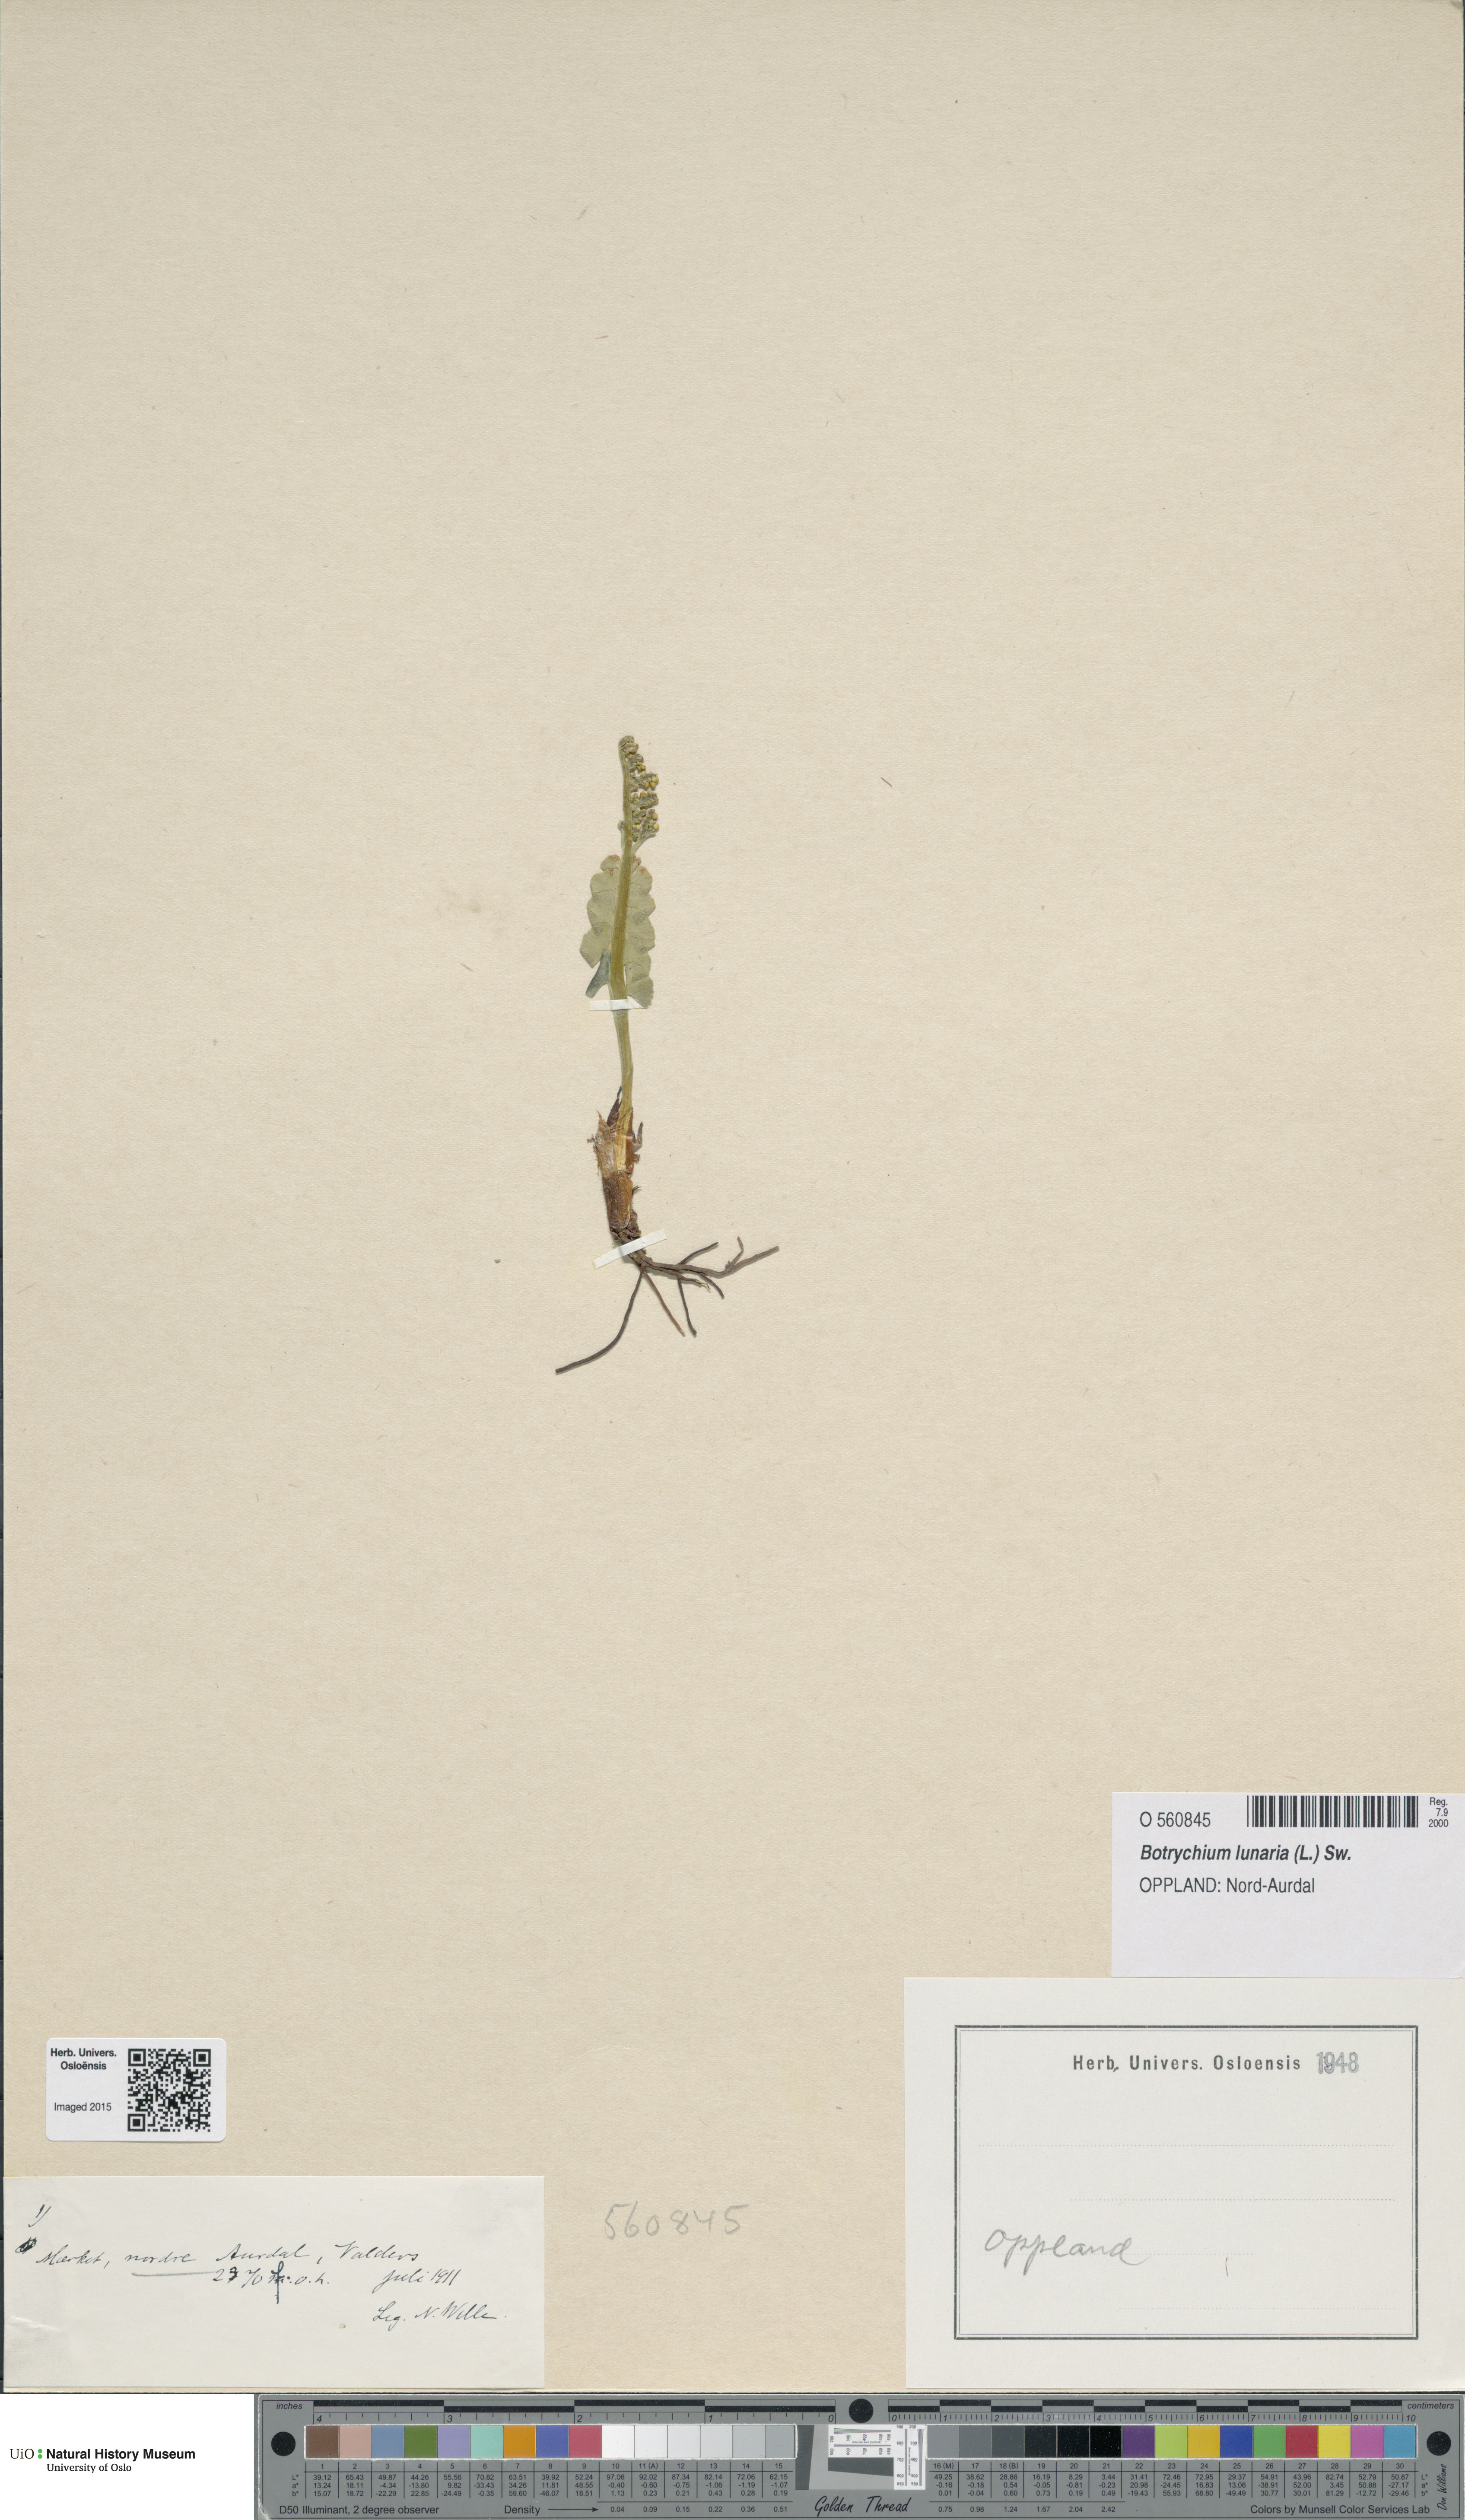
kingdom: Plantae
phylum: Tracheophyta
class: Polypodiopsida
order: Ophioglossales
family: Ophioglossaceae
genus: Botrychium
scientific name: Botrychium lunaria
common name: Moonwort
